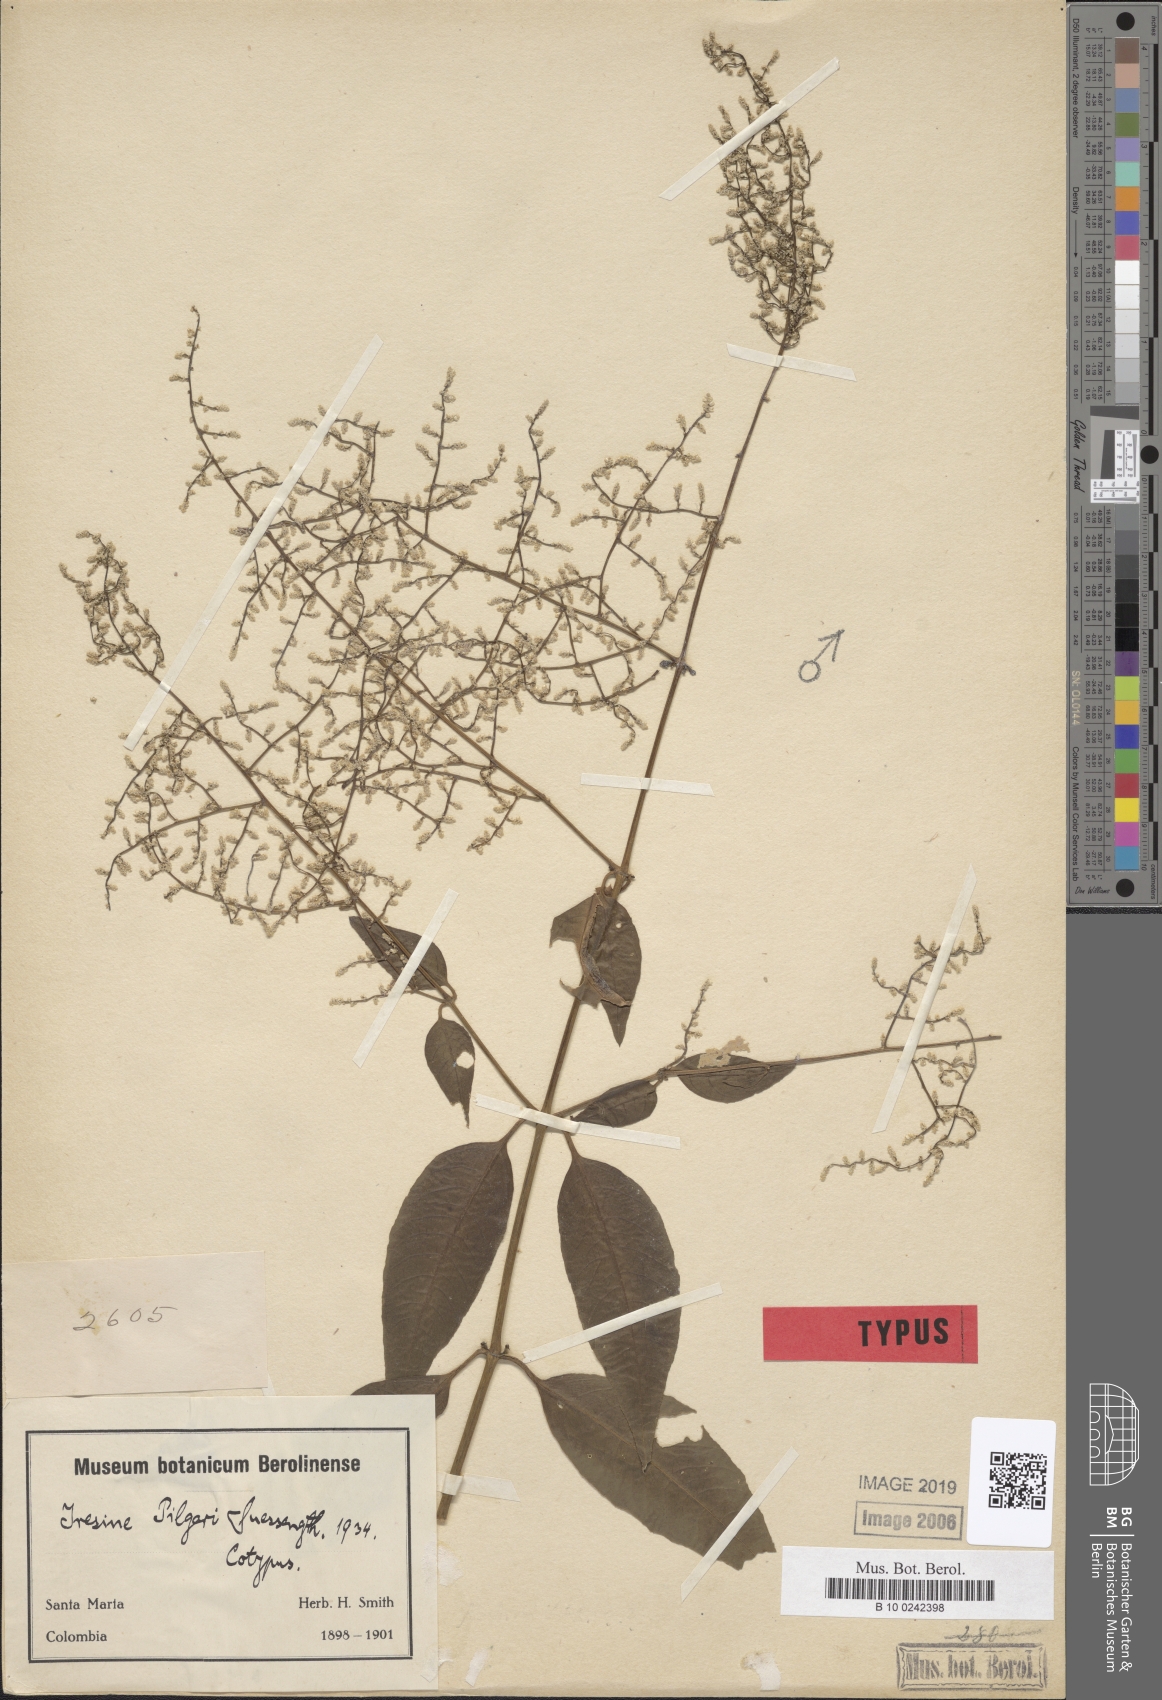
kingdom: Plantae
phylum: Tracheophyta
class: Magnoliopsida
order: Caryophyllales
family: Amaranthaceae
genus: Iresine
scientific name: Iresine diffusa
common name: Juba's-bush
